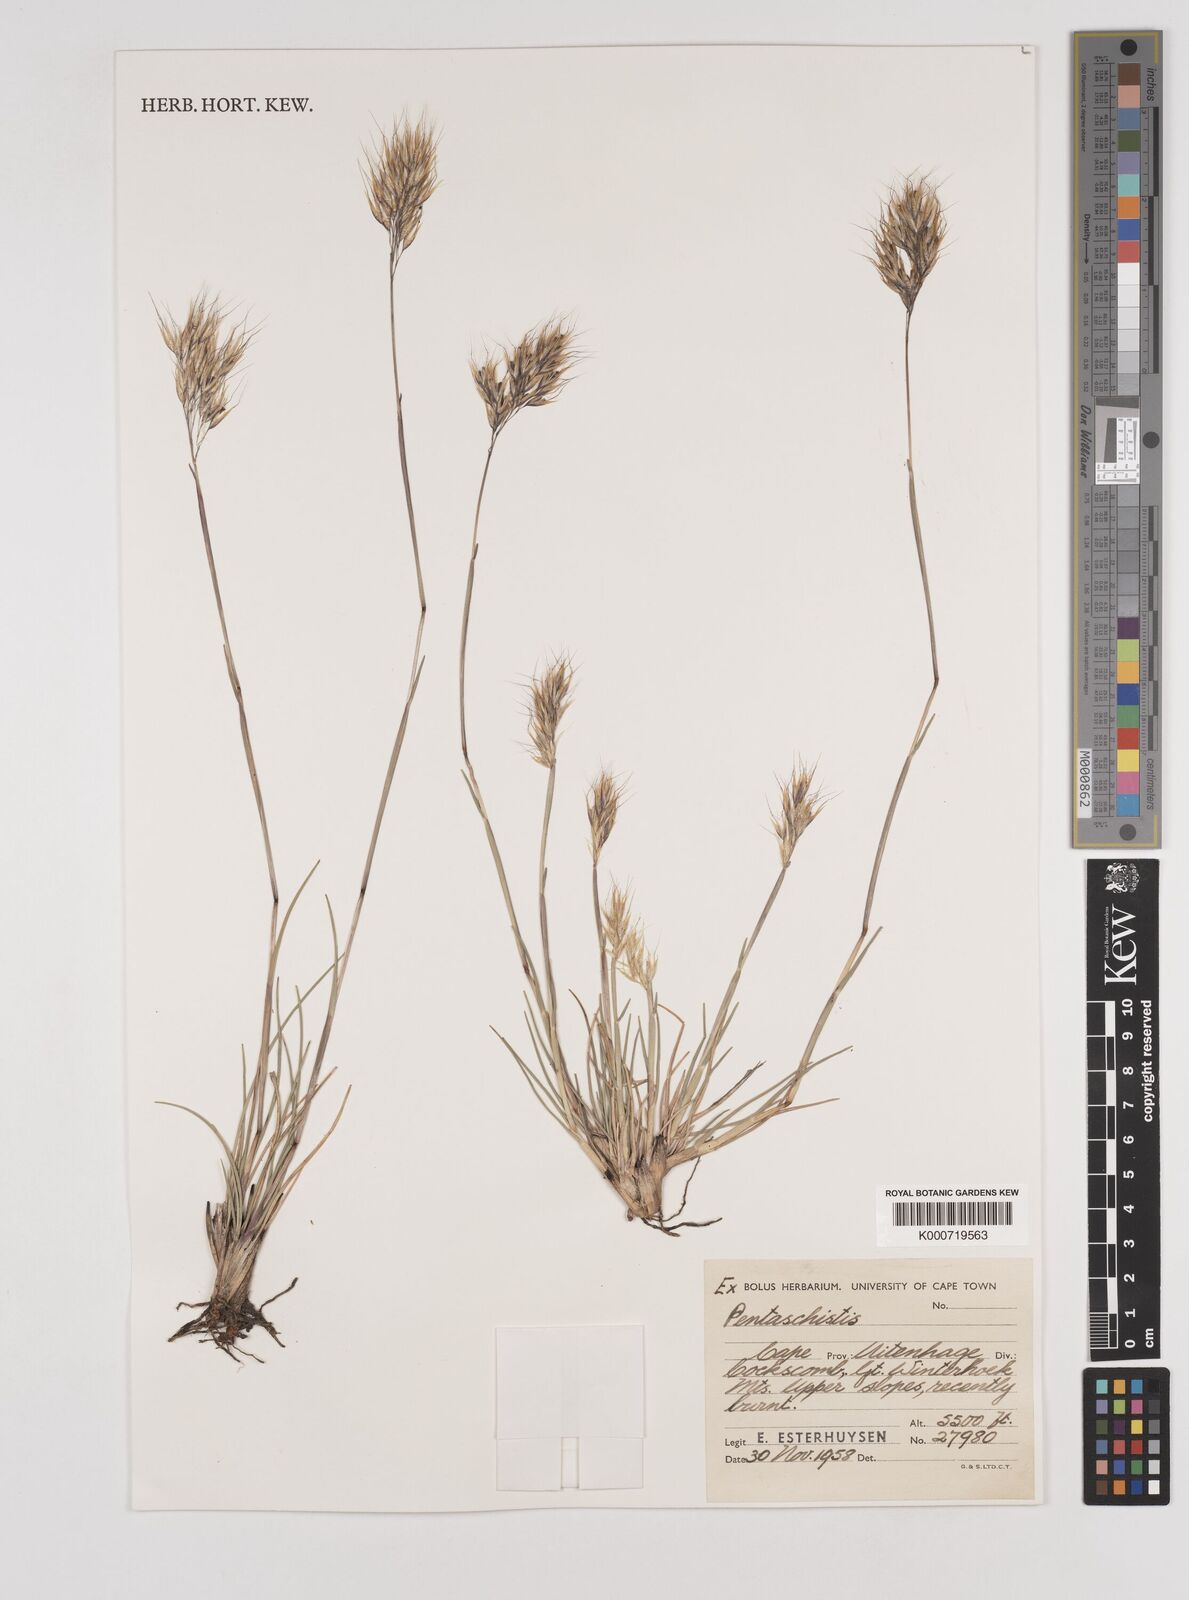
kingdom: Plantae
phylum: Tracheophyta
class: Liliopsida
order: Poales
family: Poaceae
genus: Pentameris
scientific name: Pentameris pyrophila
